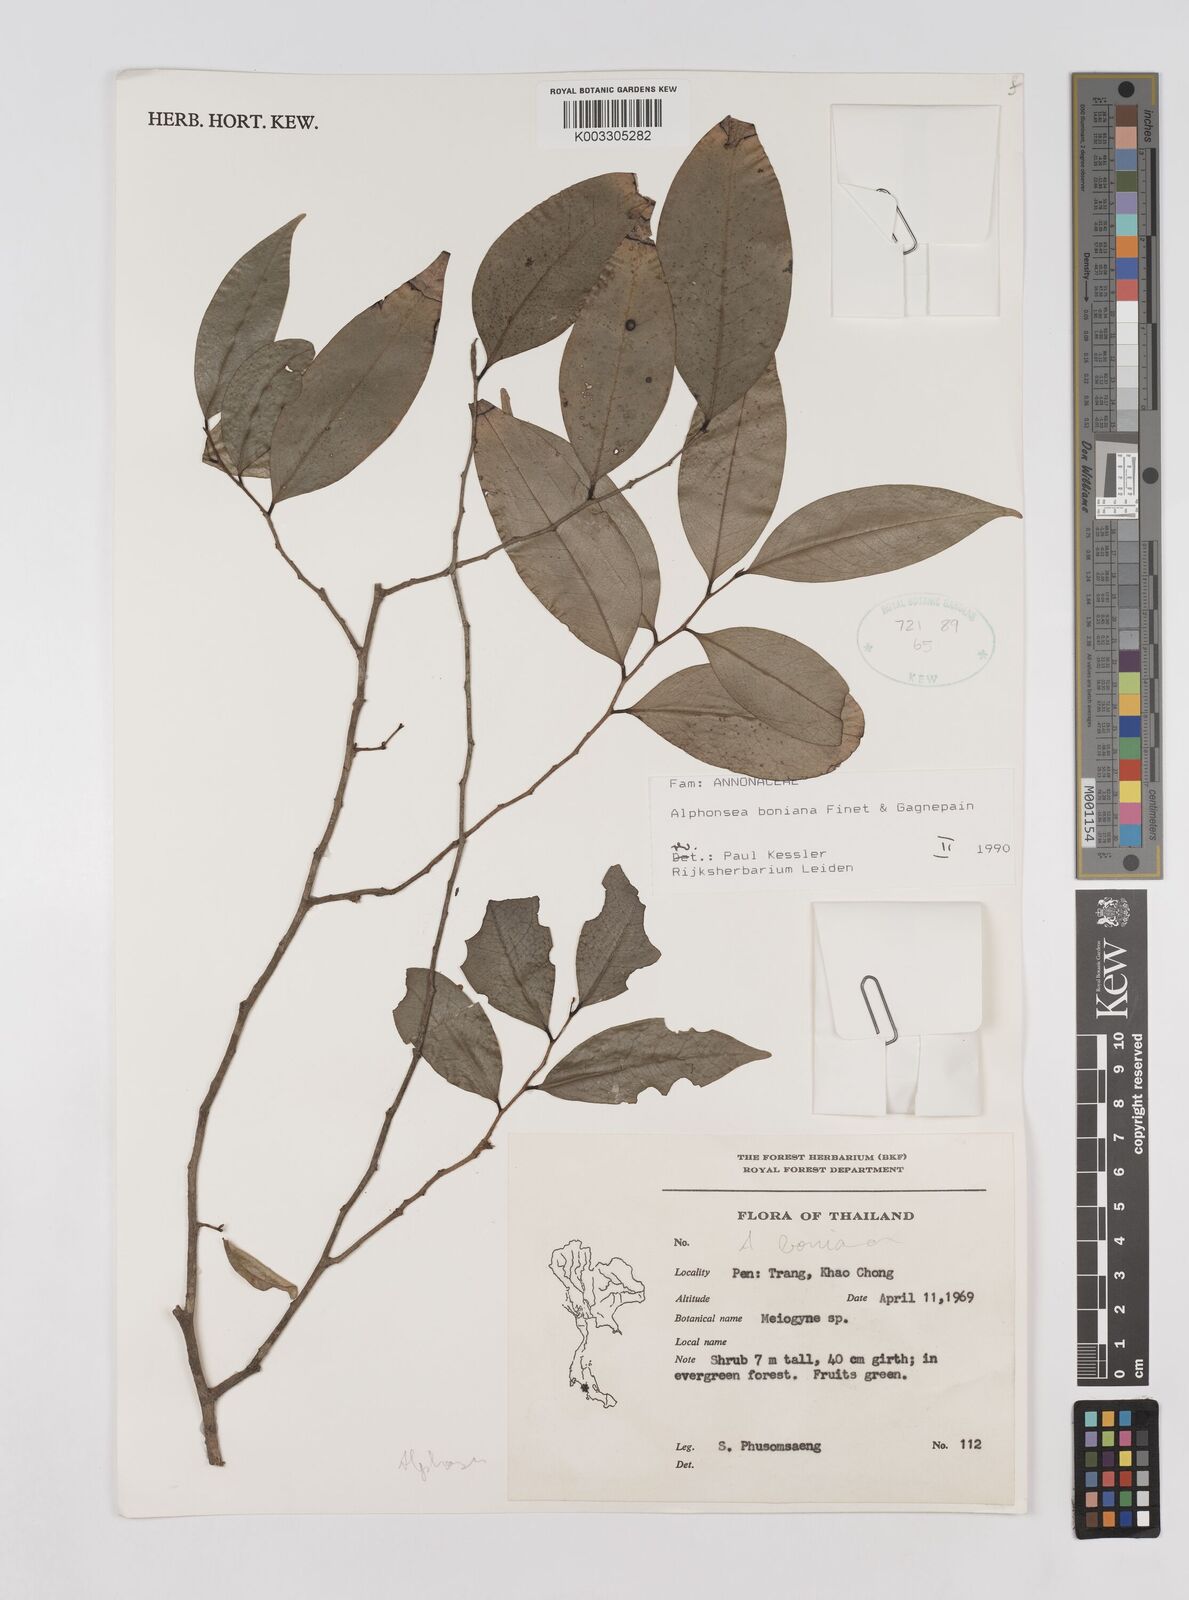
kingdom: Plantae
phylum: Tracheophyta
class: Magnoliopsida
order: Magnoliales
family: Annonaceae
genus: Alphonsea
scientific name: Alphonsea boniana
